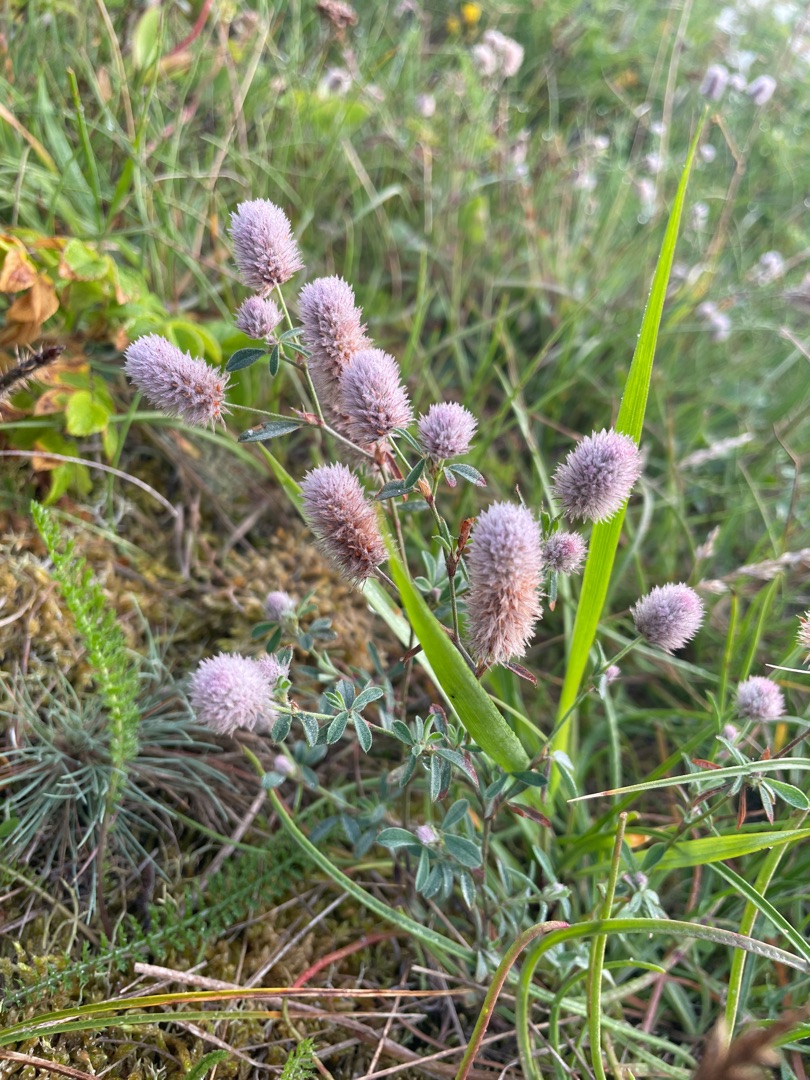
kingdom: Plantae
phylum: Tracheophyta
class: Magnoliopsida
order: Fabales
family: Fabaceae
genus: Trifolium
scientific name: Trifolium arvense
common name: Hare-kløver
